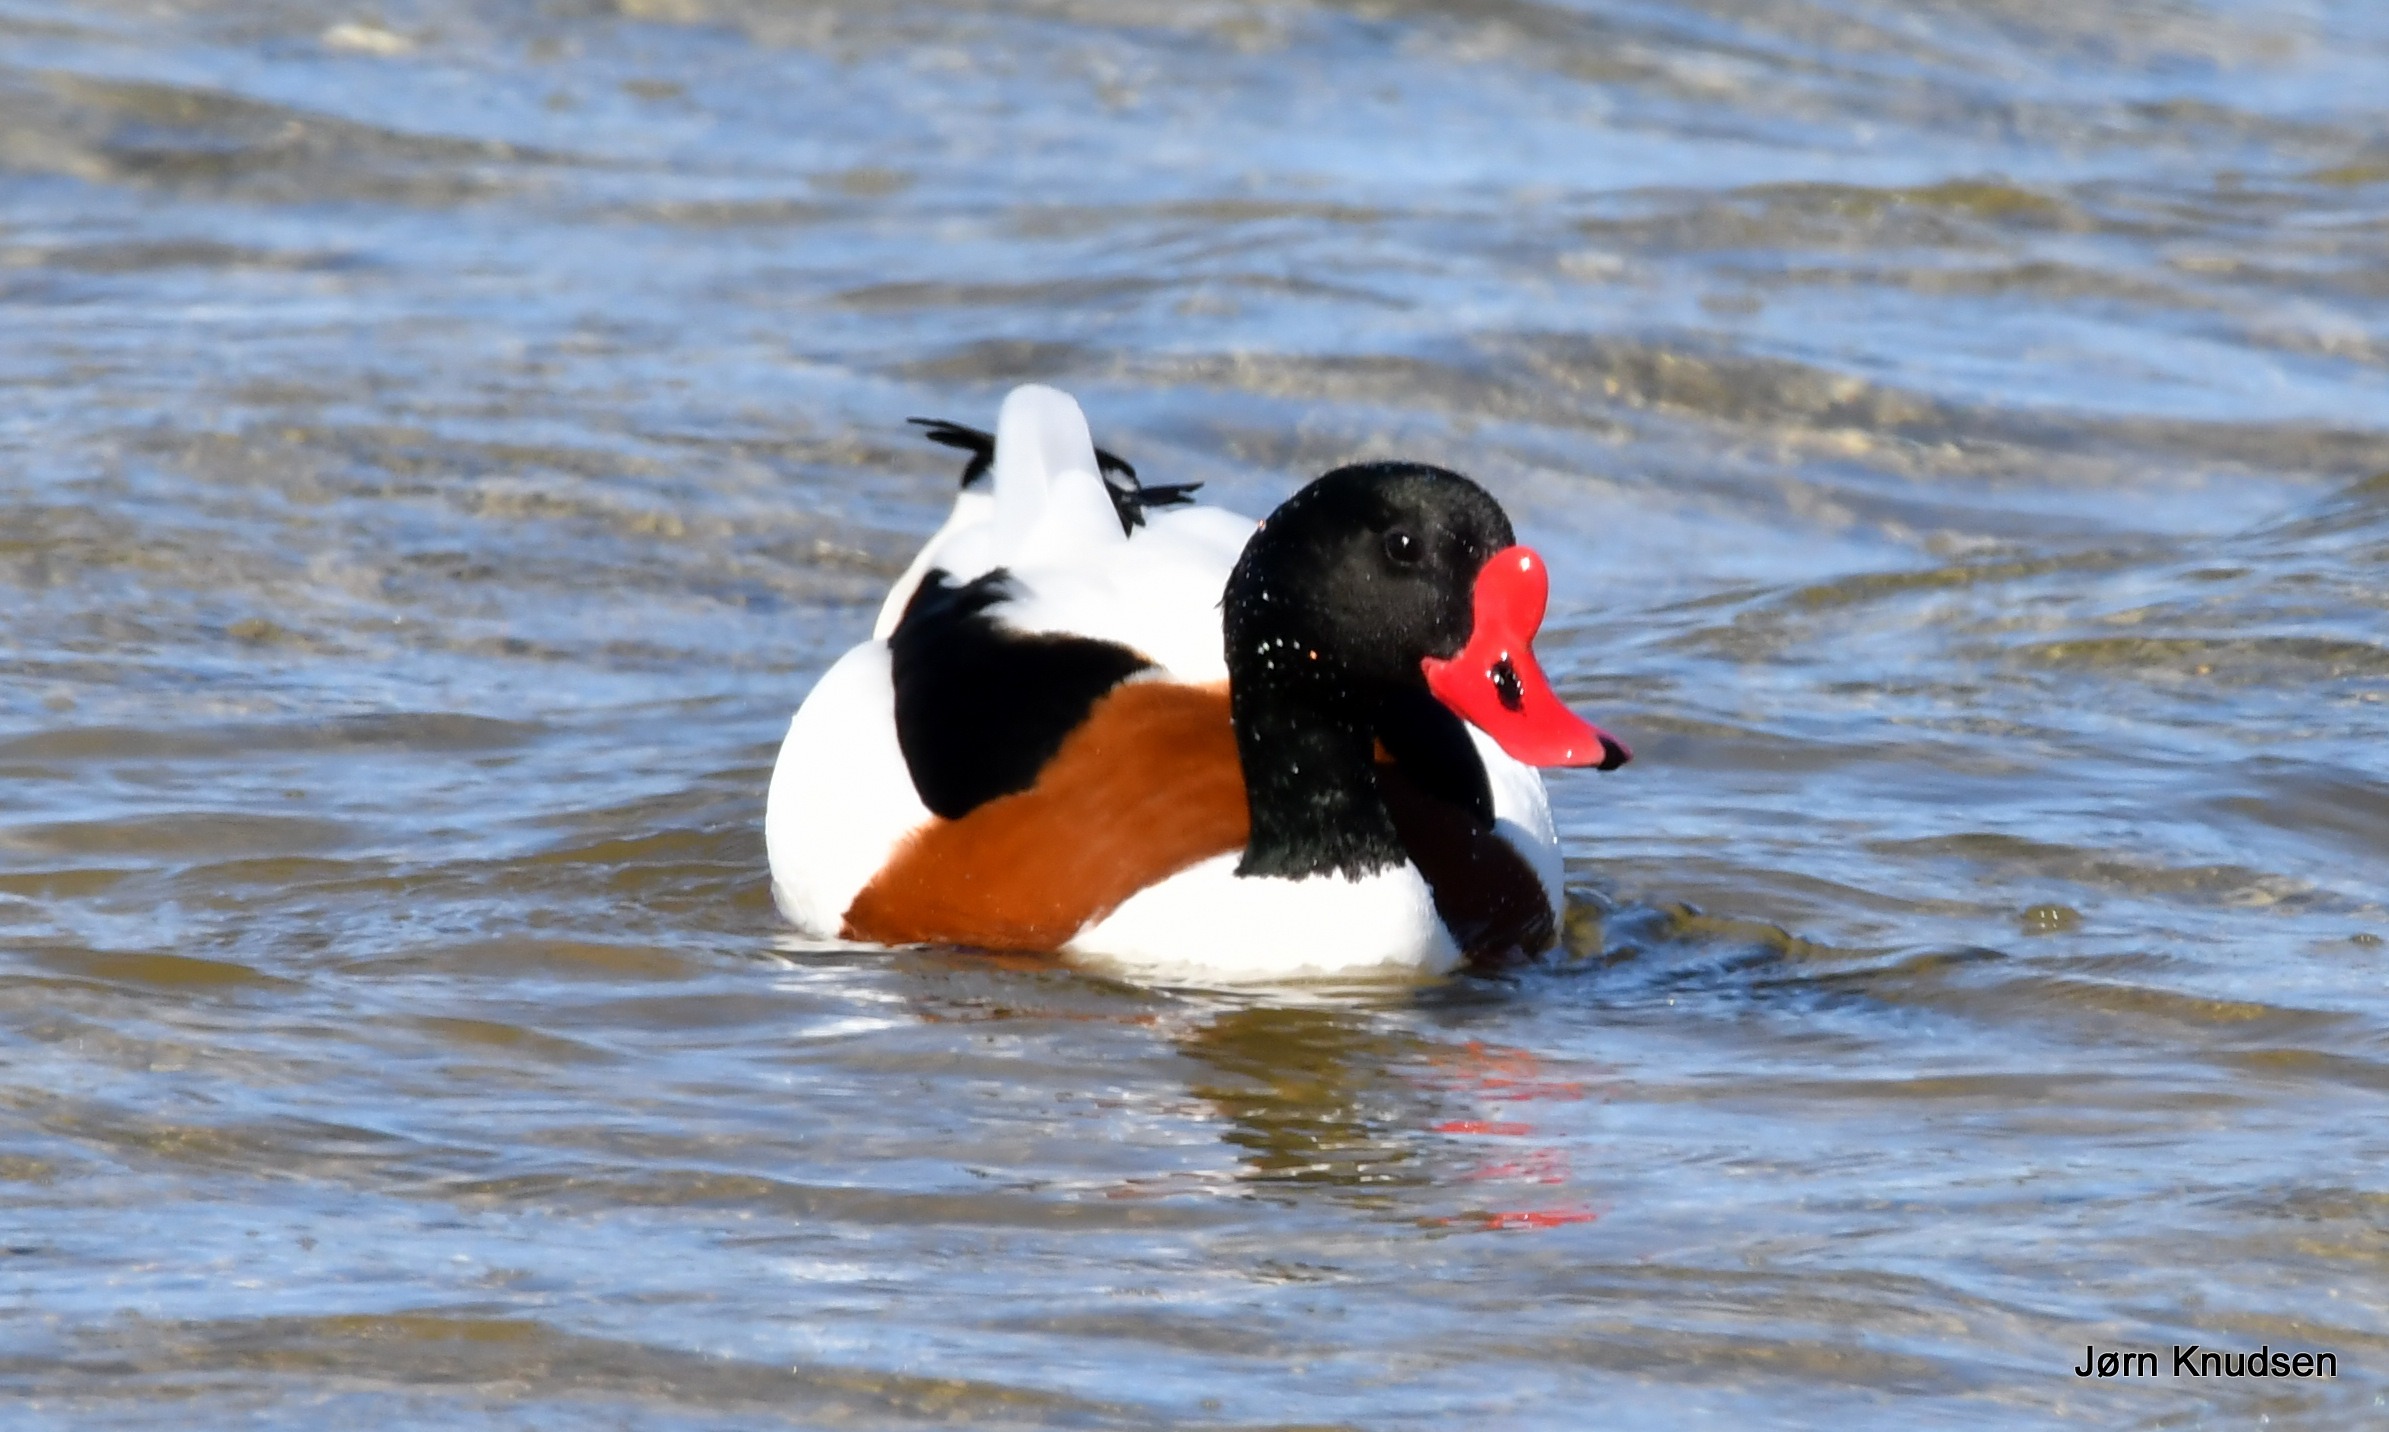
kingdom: Animalia
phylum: Chordata
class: Aves
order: Anseriformes
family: Anatidae
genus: Tadorna
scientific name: Tadorna tadorna
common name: Gravand
